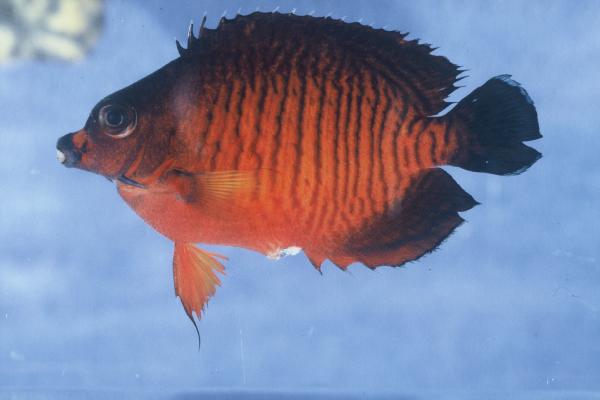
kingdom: Animalia
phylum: Chordata
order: Perciformes
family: Pomacanthidae
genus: Centropyge
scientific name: Centropyge bispinosa
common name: Coral beauty
